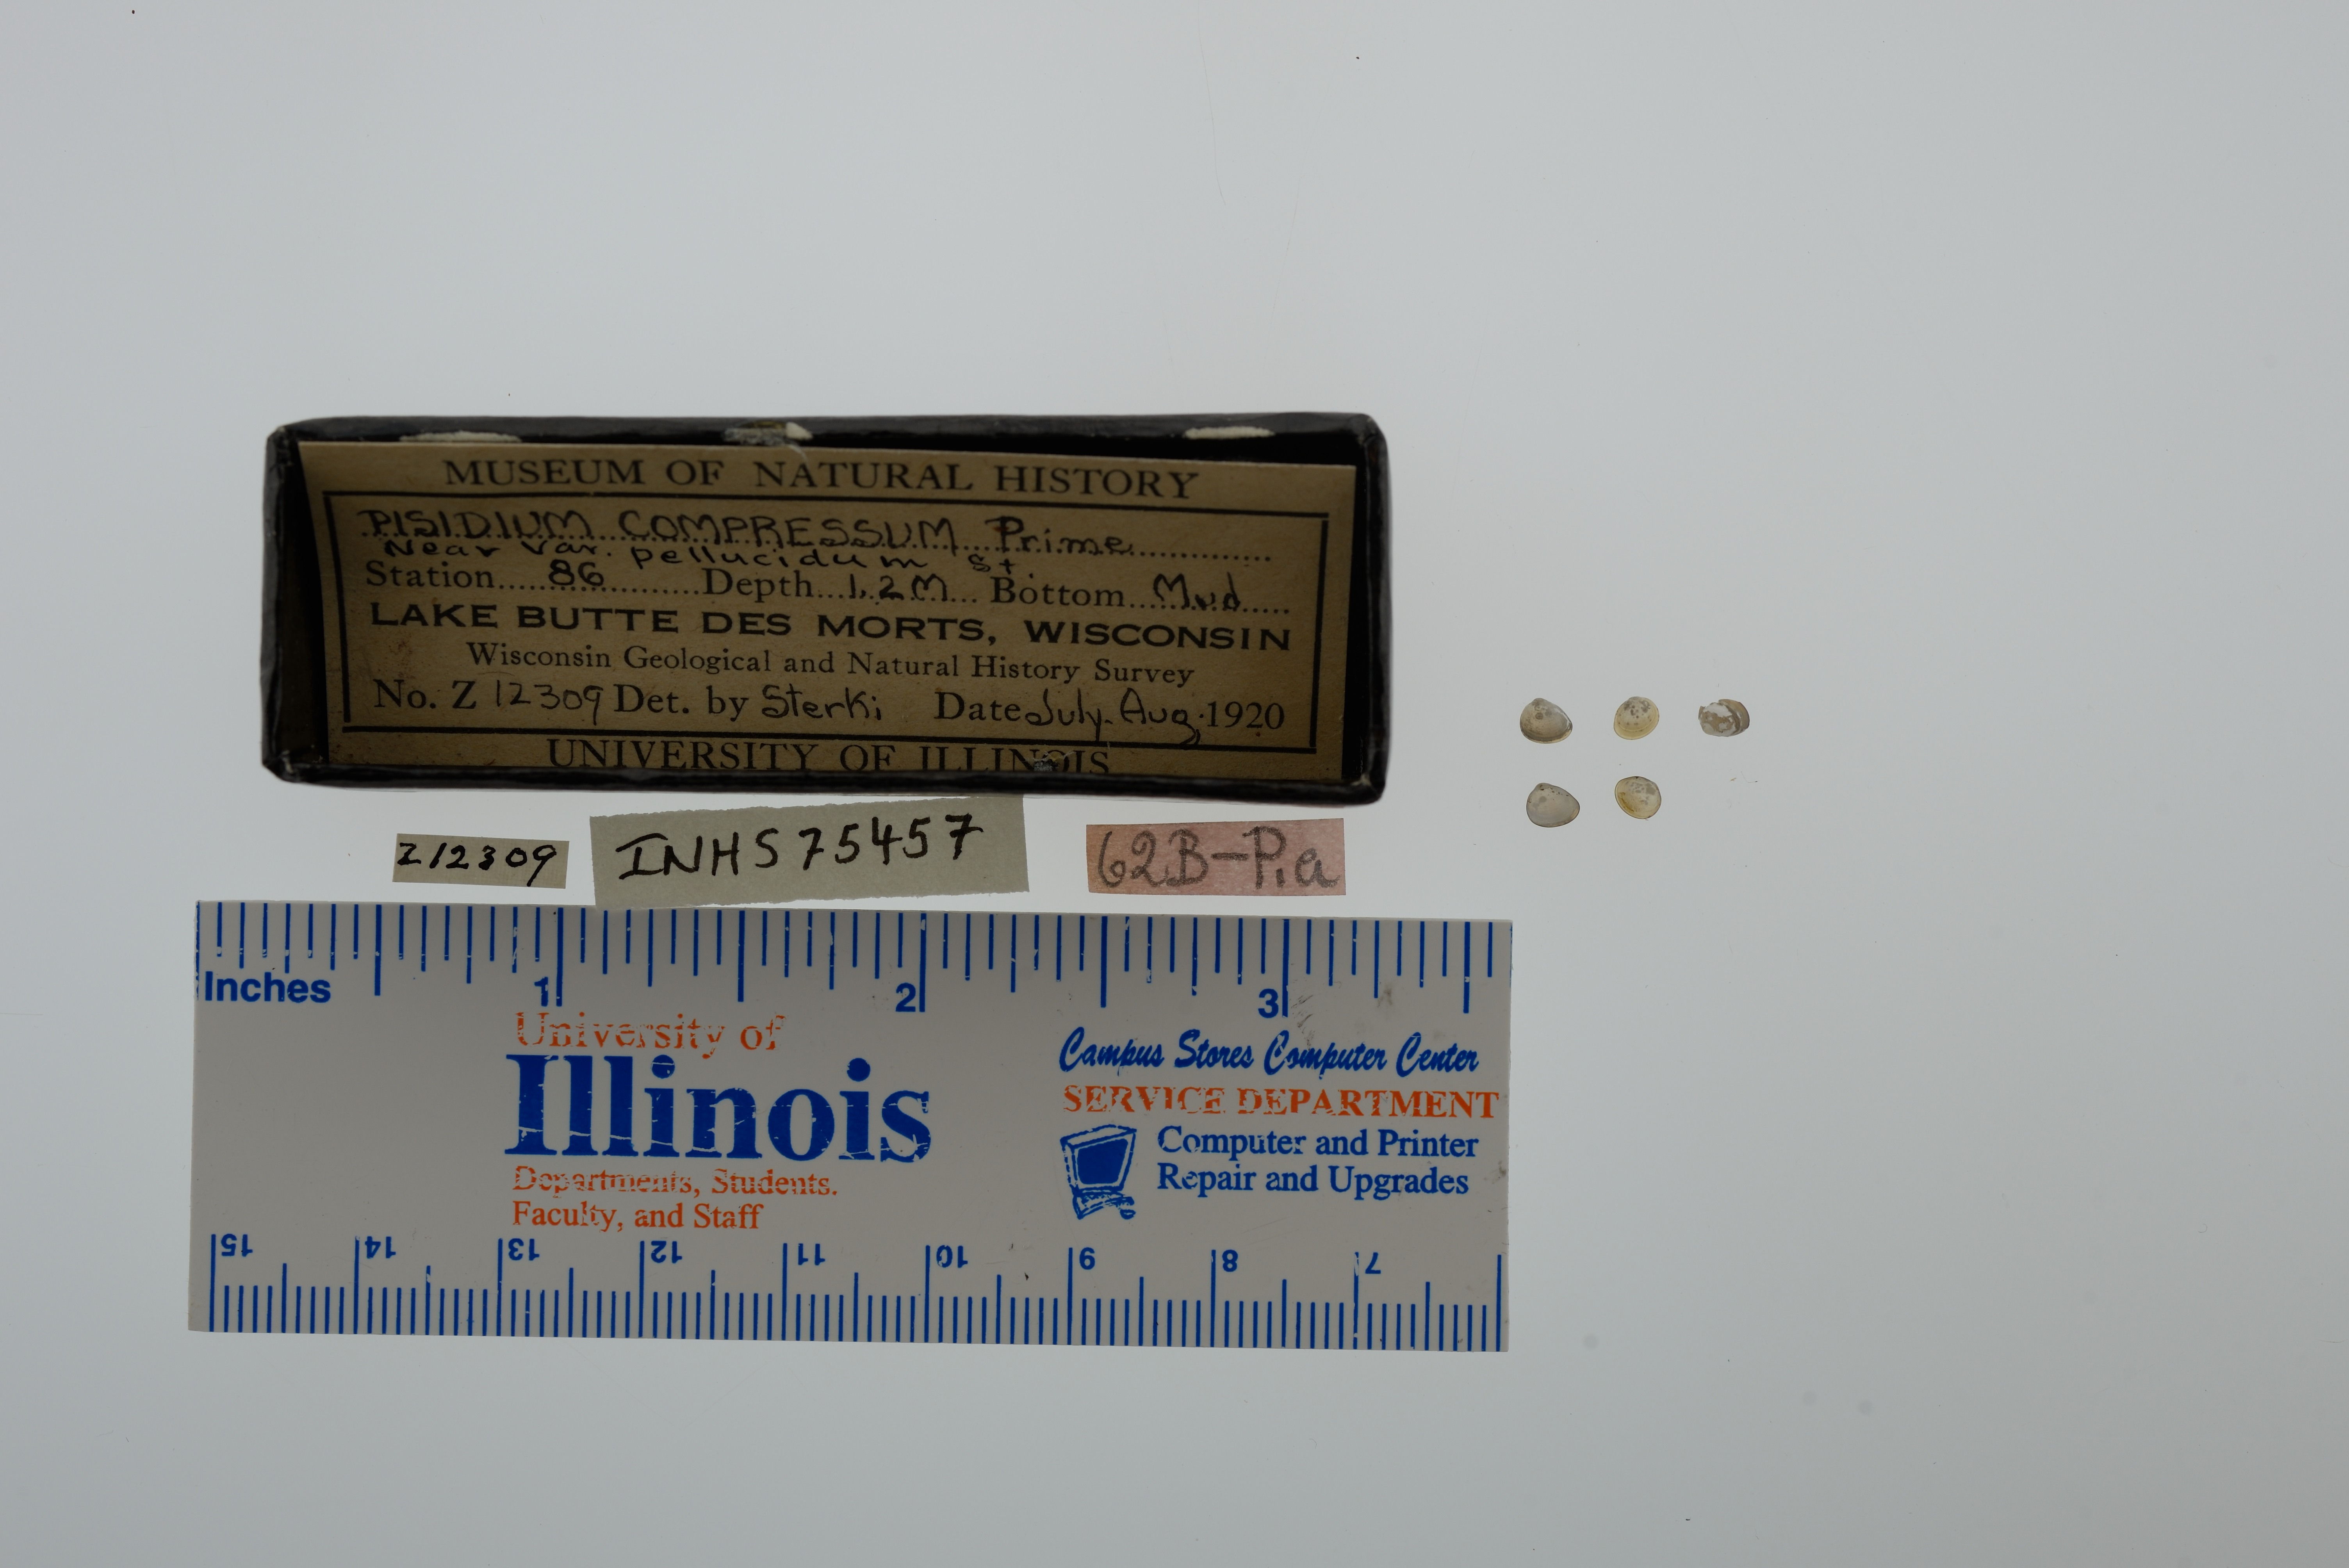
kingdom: Animalia
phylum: Mollusca
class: Bivalvia
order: Sphaeriida
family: Sphaeriidae
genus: Euglesa
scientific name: Euglesa compressa
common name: Ridgedbeak peaclam
